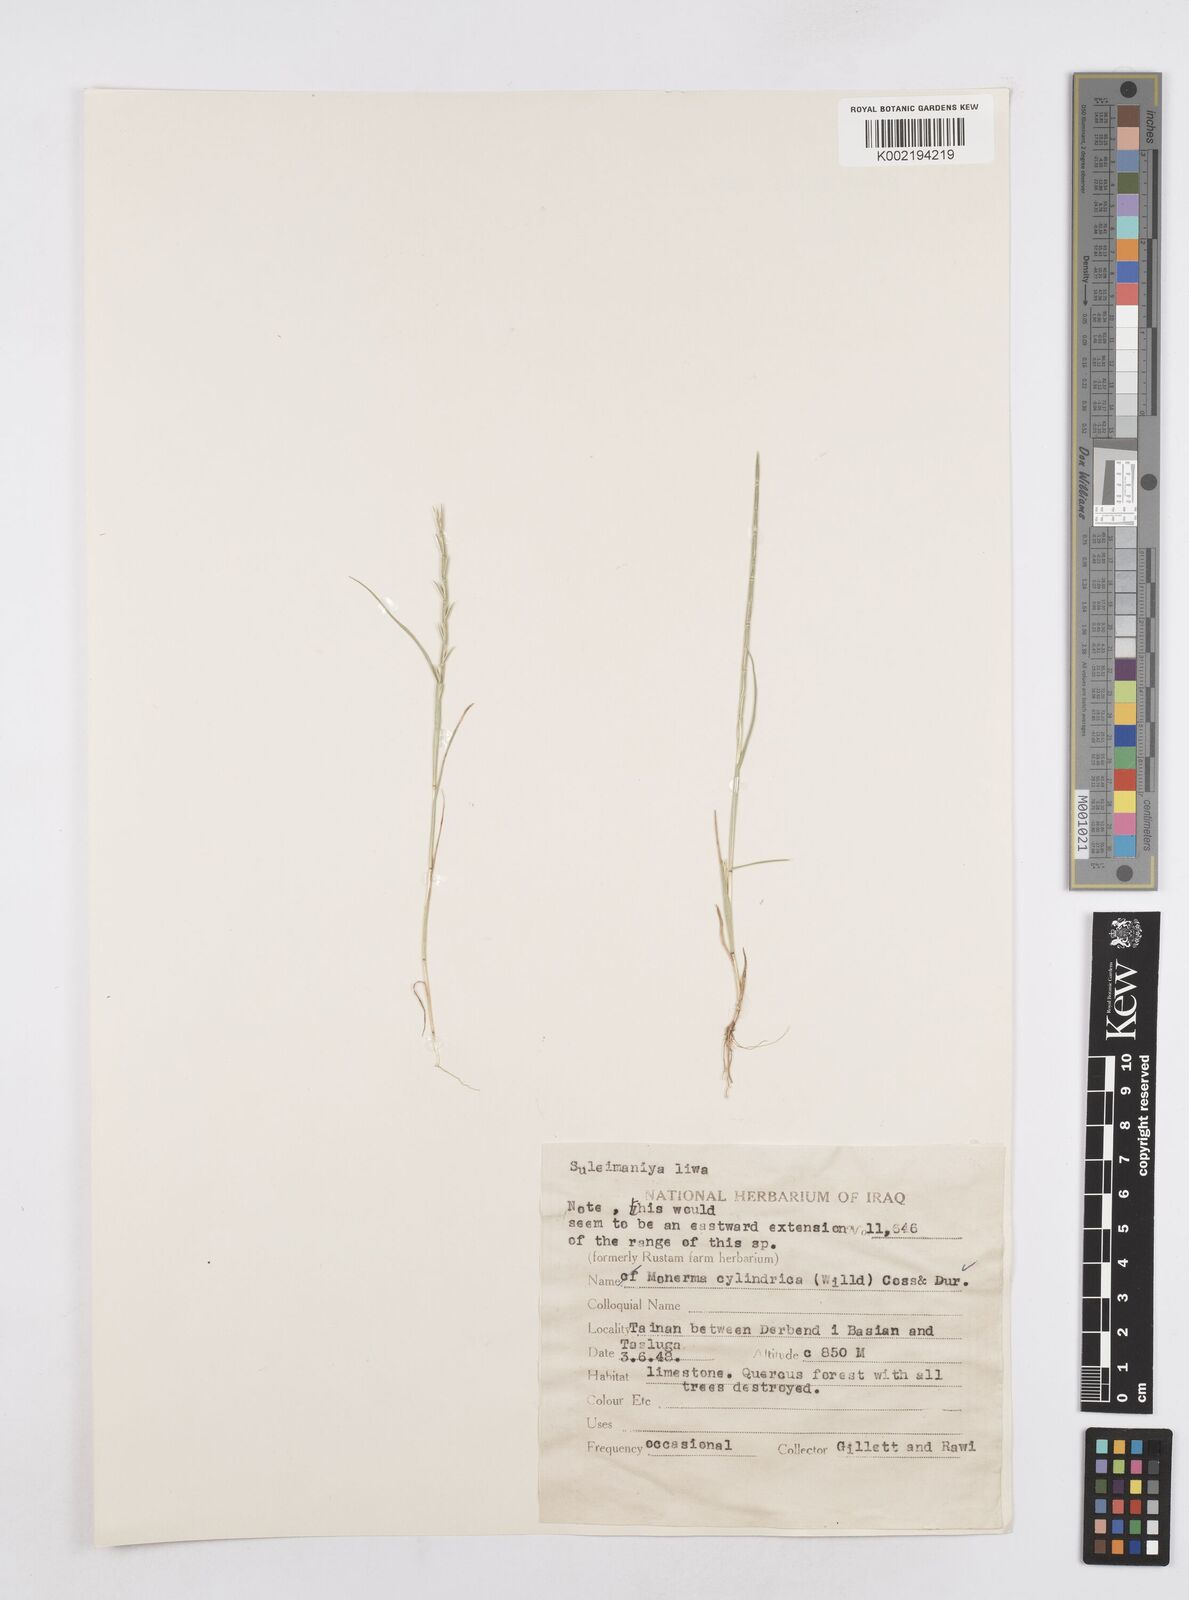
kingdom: Plantae
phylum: Tracheophyta
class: Liliopsida
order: Poales
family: Poaceae
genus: Parapholis
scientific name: Parapholis cylindrica
